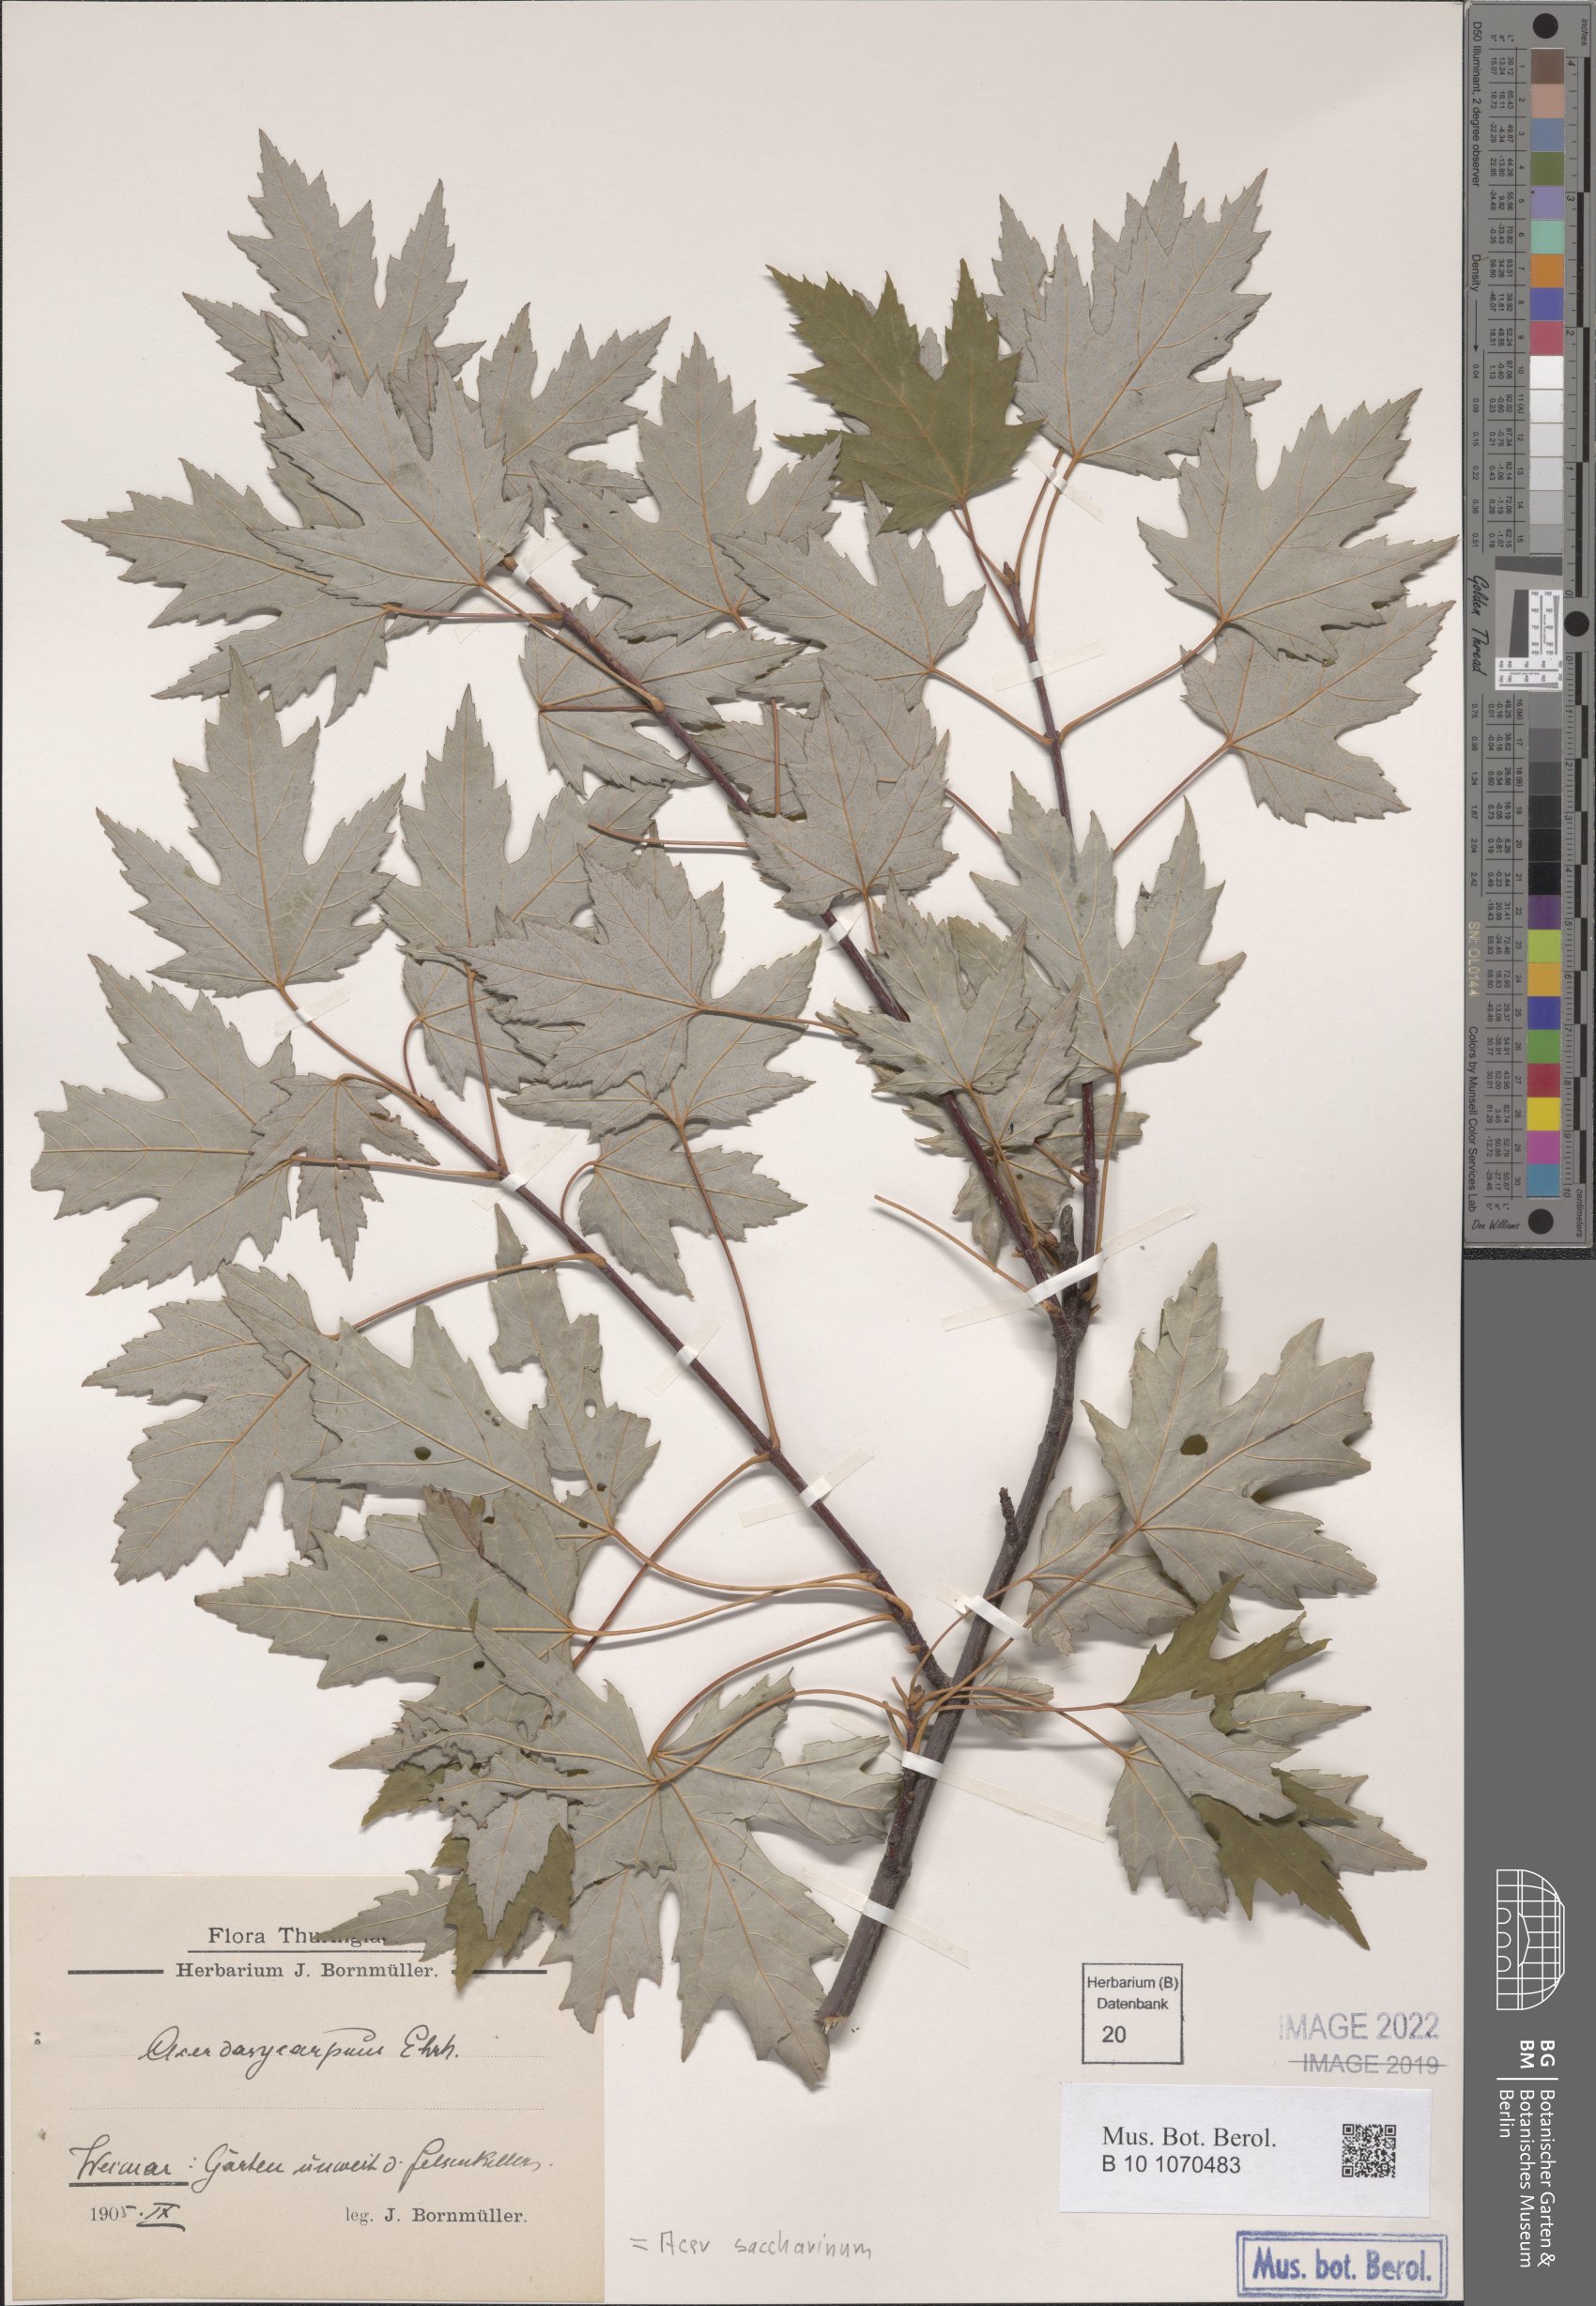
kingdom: Plantae
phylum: Tracheophyta
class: Magnoliopsida
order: Sapindales
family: Sapindaceae
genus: Acer
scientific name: Acer saccharinum
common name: Silver maple
